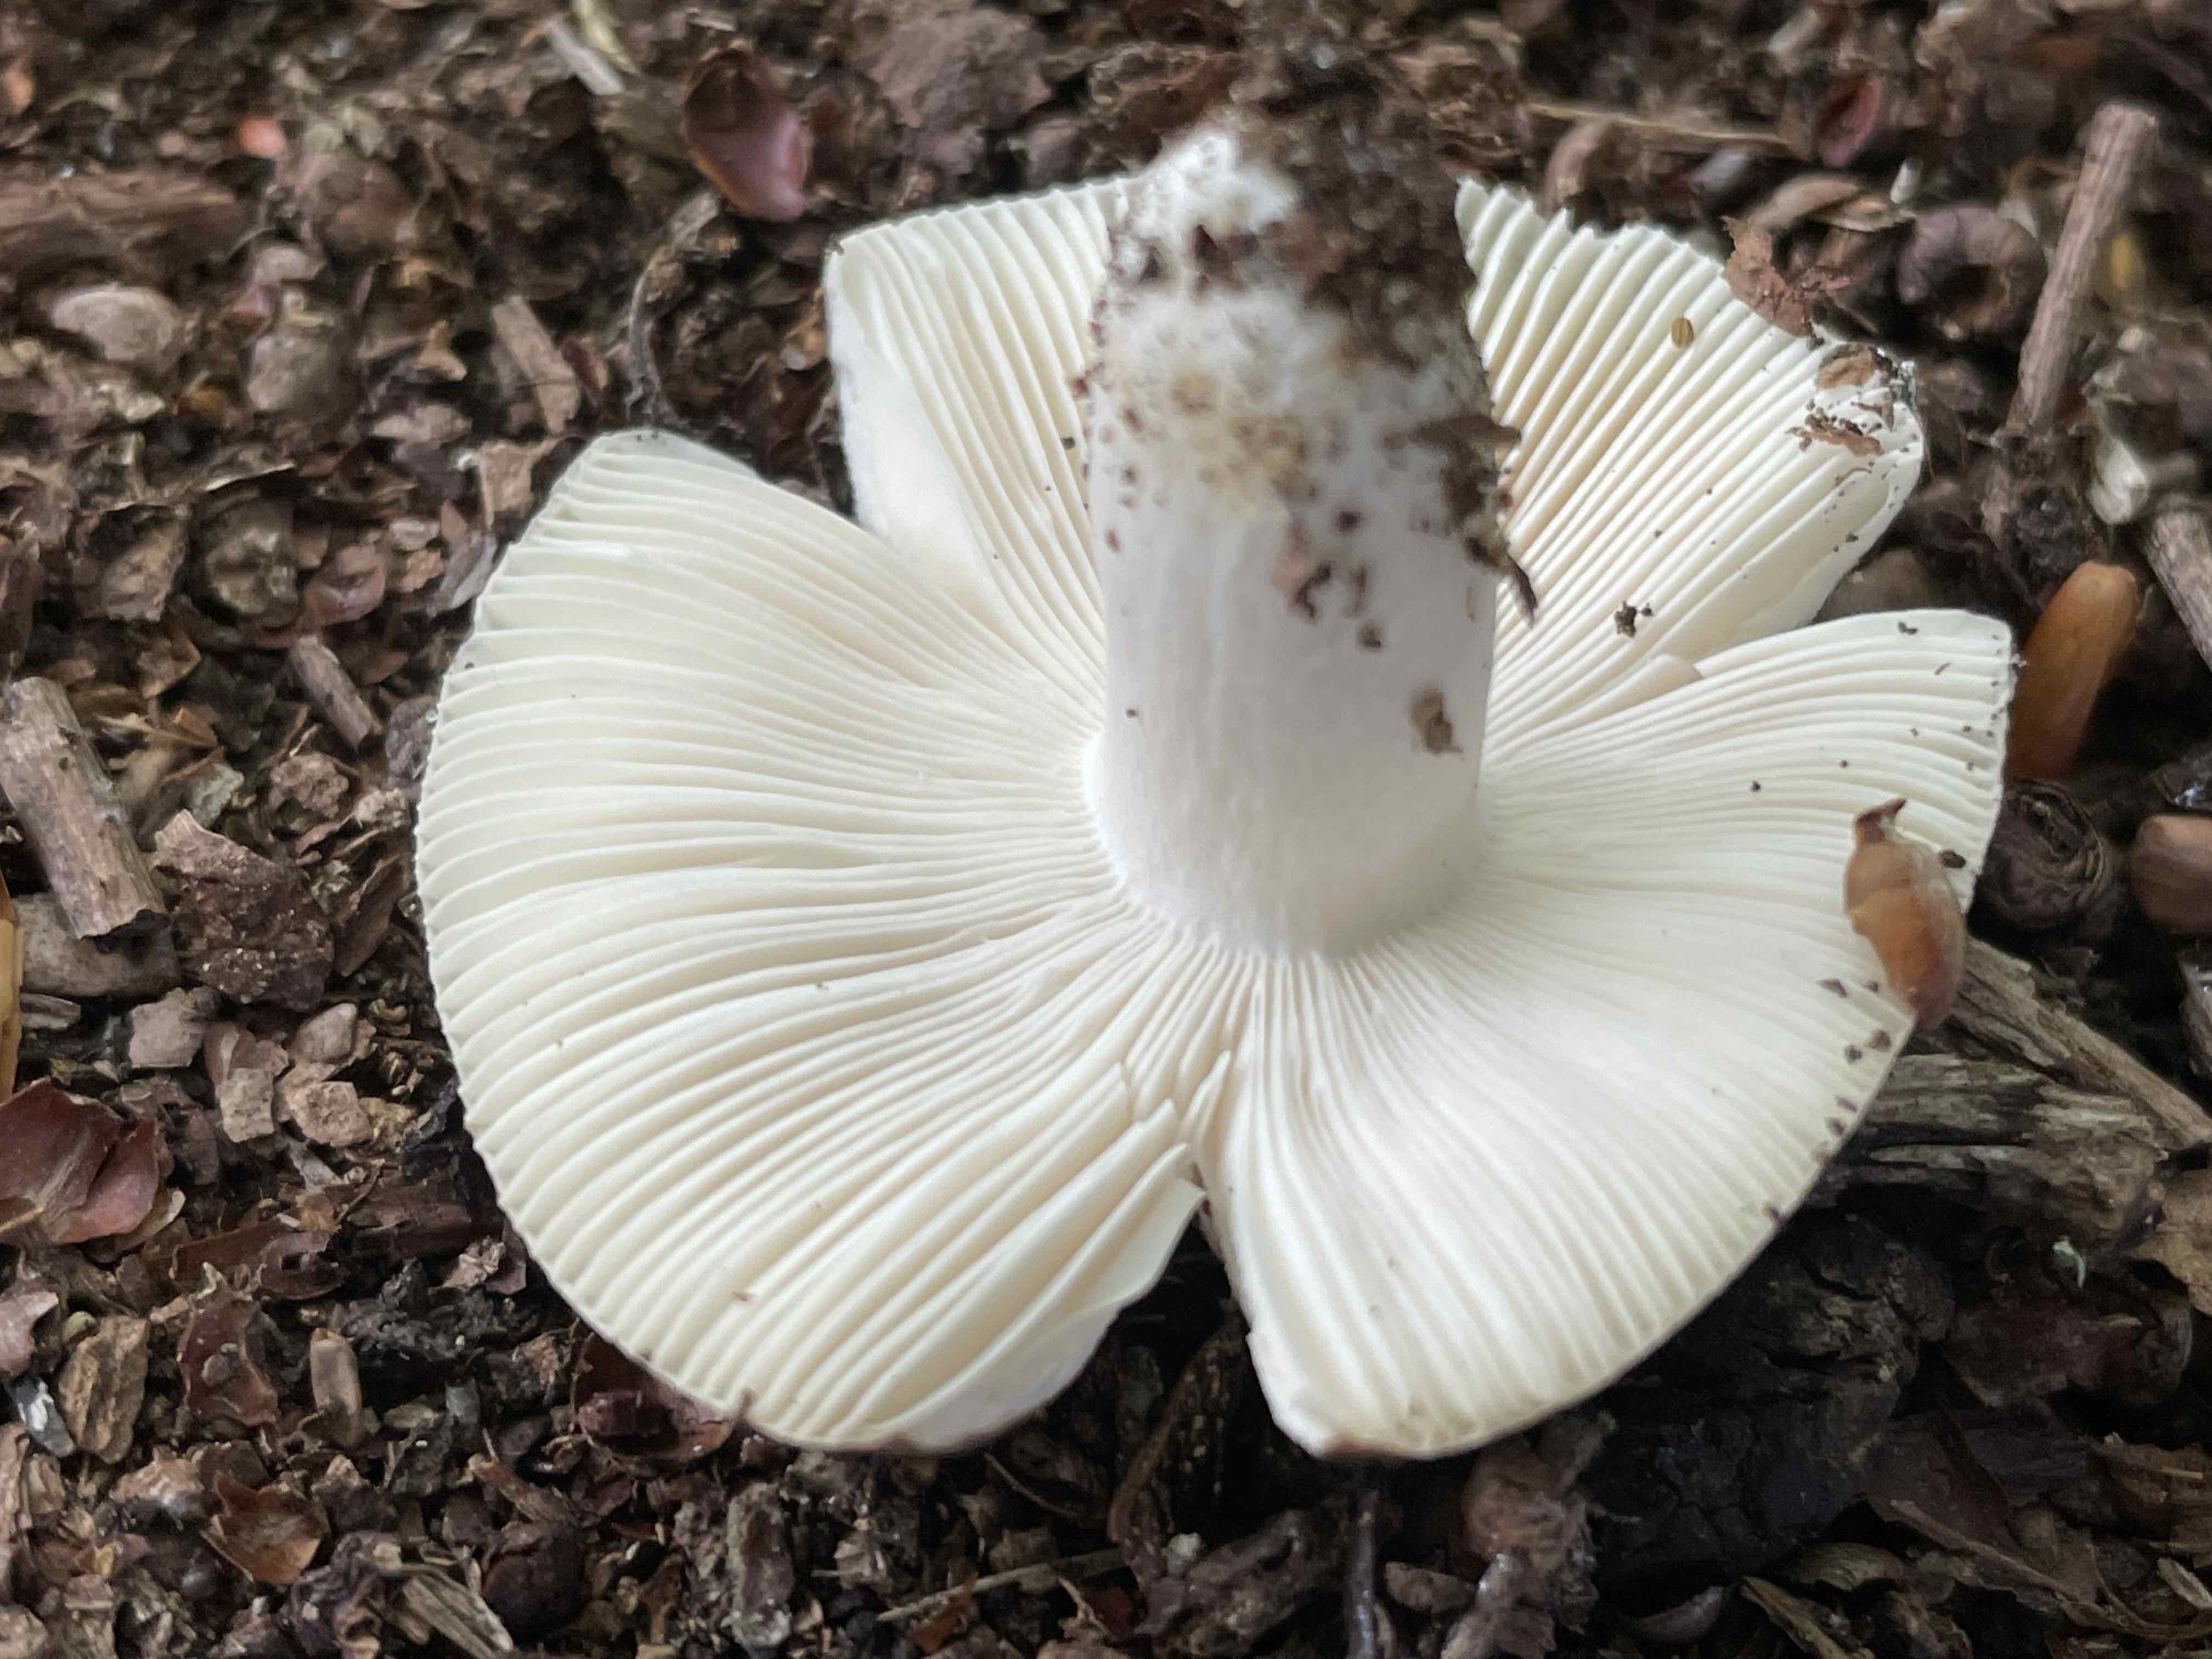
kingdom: Fungi
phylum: Basidiomycota
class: Agaricomycetes
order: Russulales
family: Russulaceae
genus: Russula
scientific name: Russula
